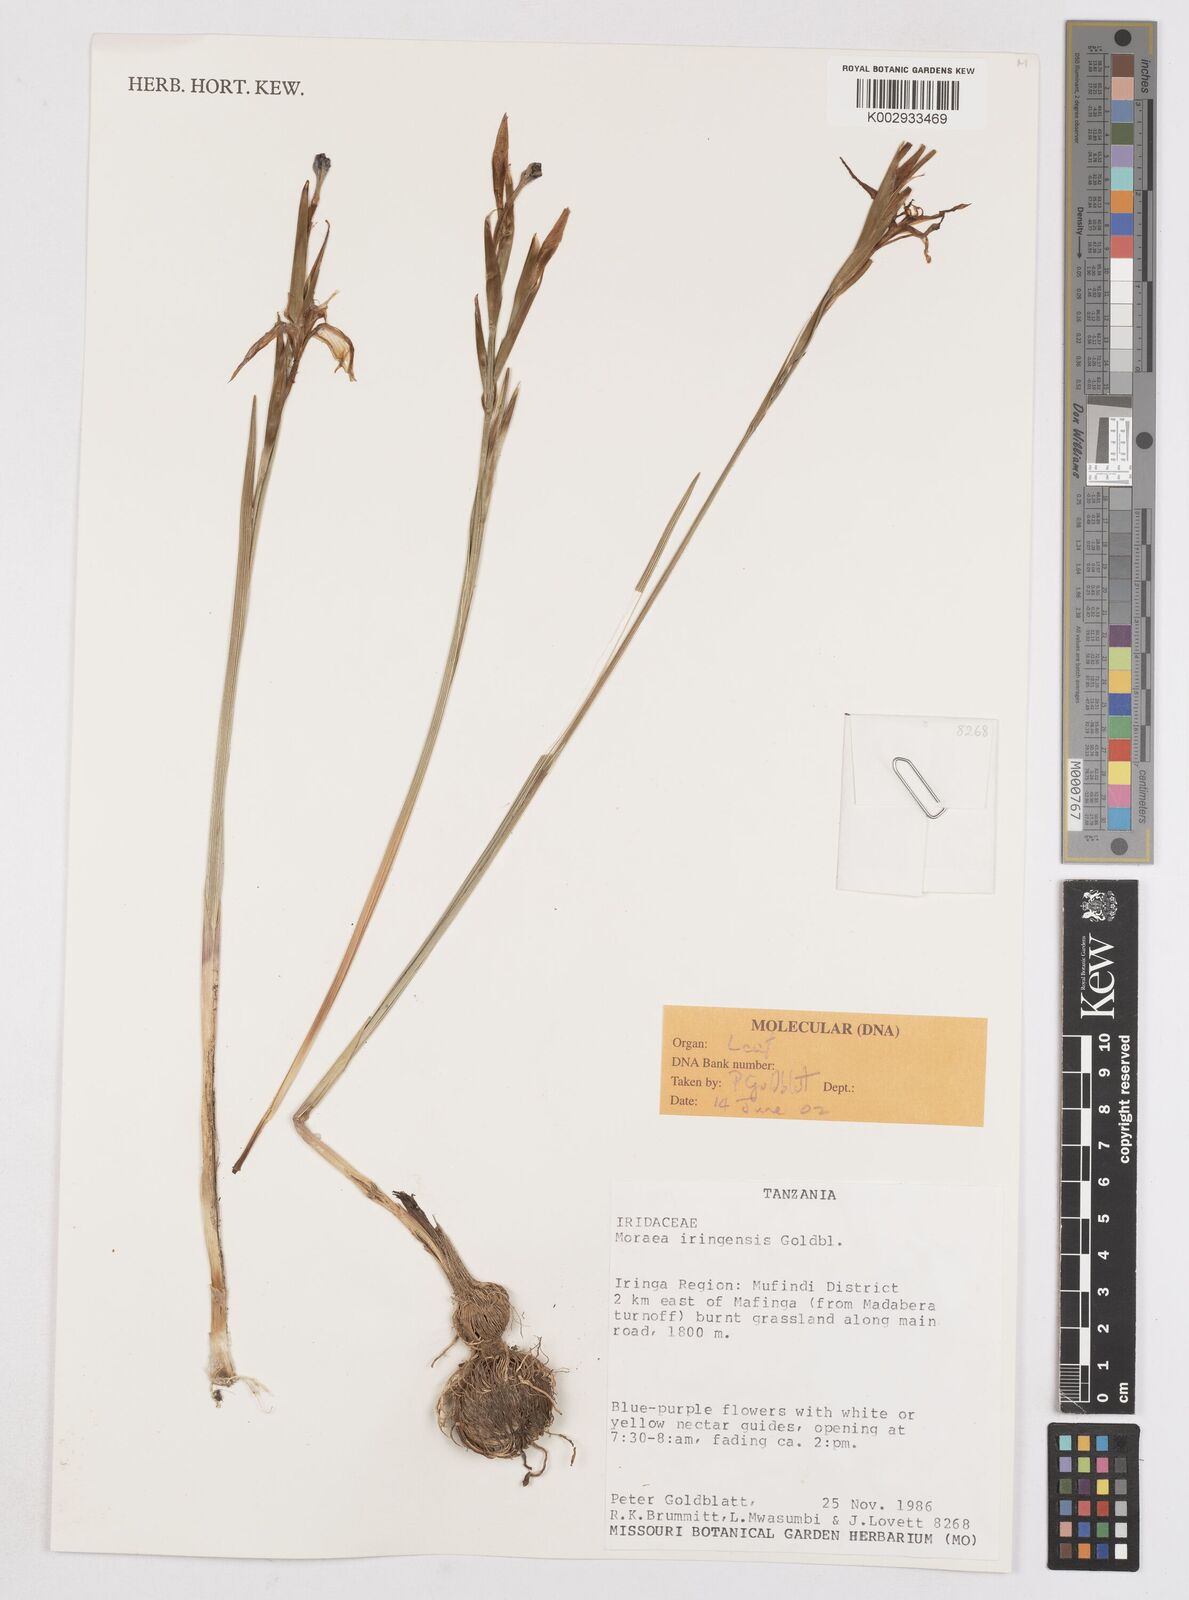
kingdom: Plantae
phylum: Tracheophyta
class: Liliopsida
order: Asparagales
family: Iridaceae
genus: Moraea
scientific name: Moraea iringensis
